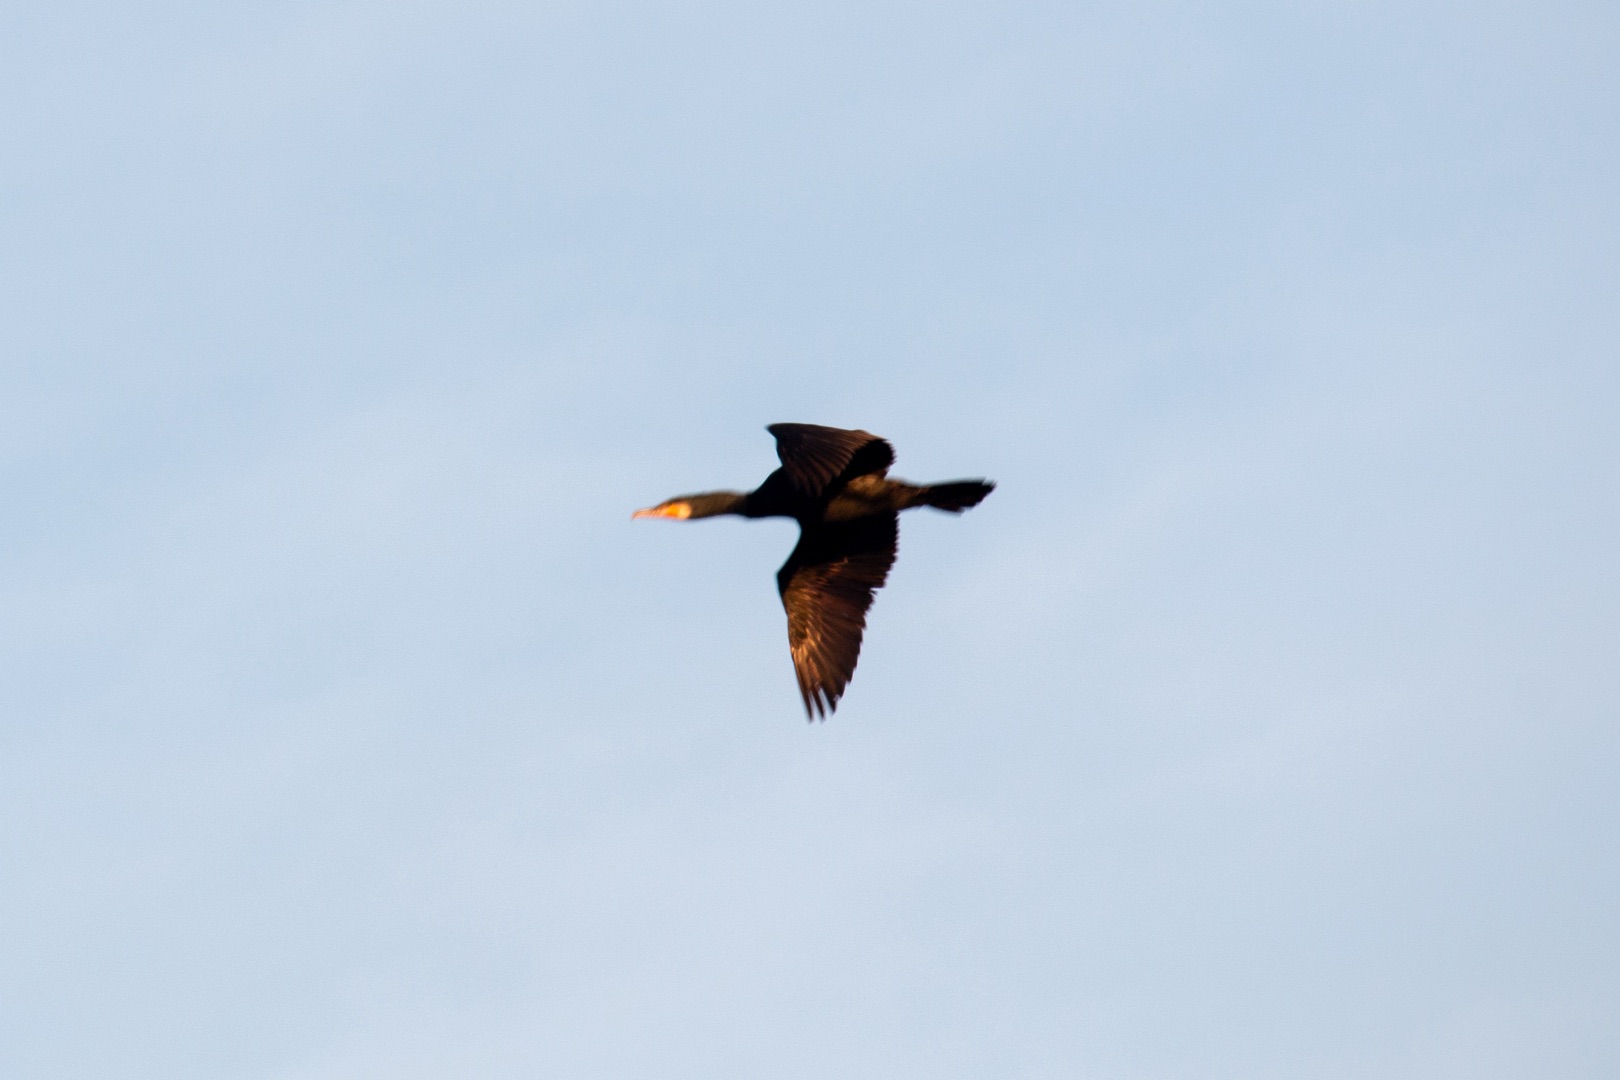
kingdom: Animalia
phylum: Chordata
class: Aves
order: Suliformes
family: Phalacrocoracidae
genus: Phalacrocorax
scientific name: Phalacrocorax carbo
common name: Skarv
